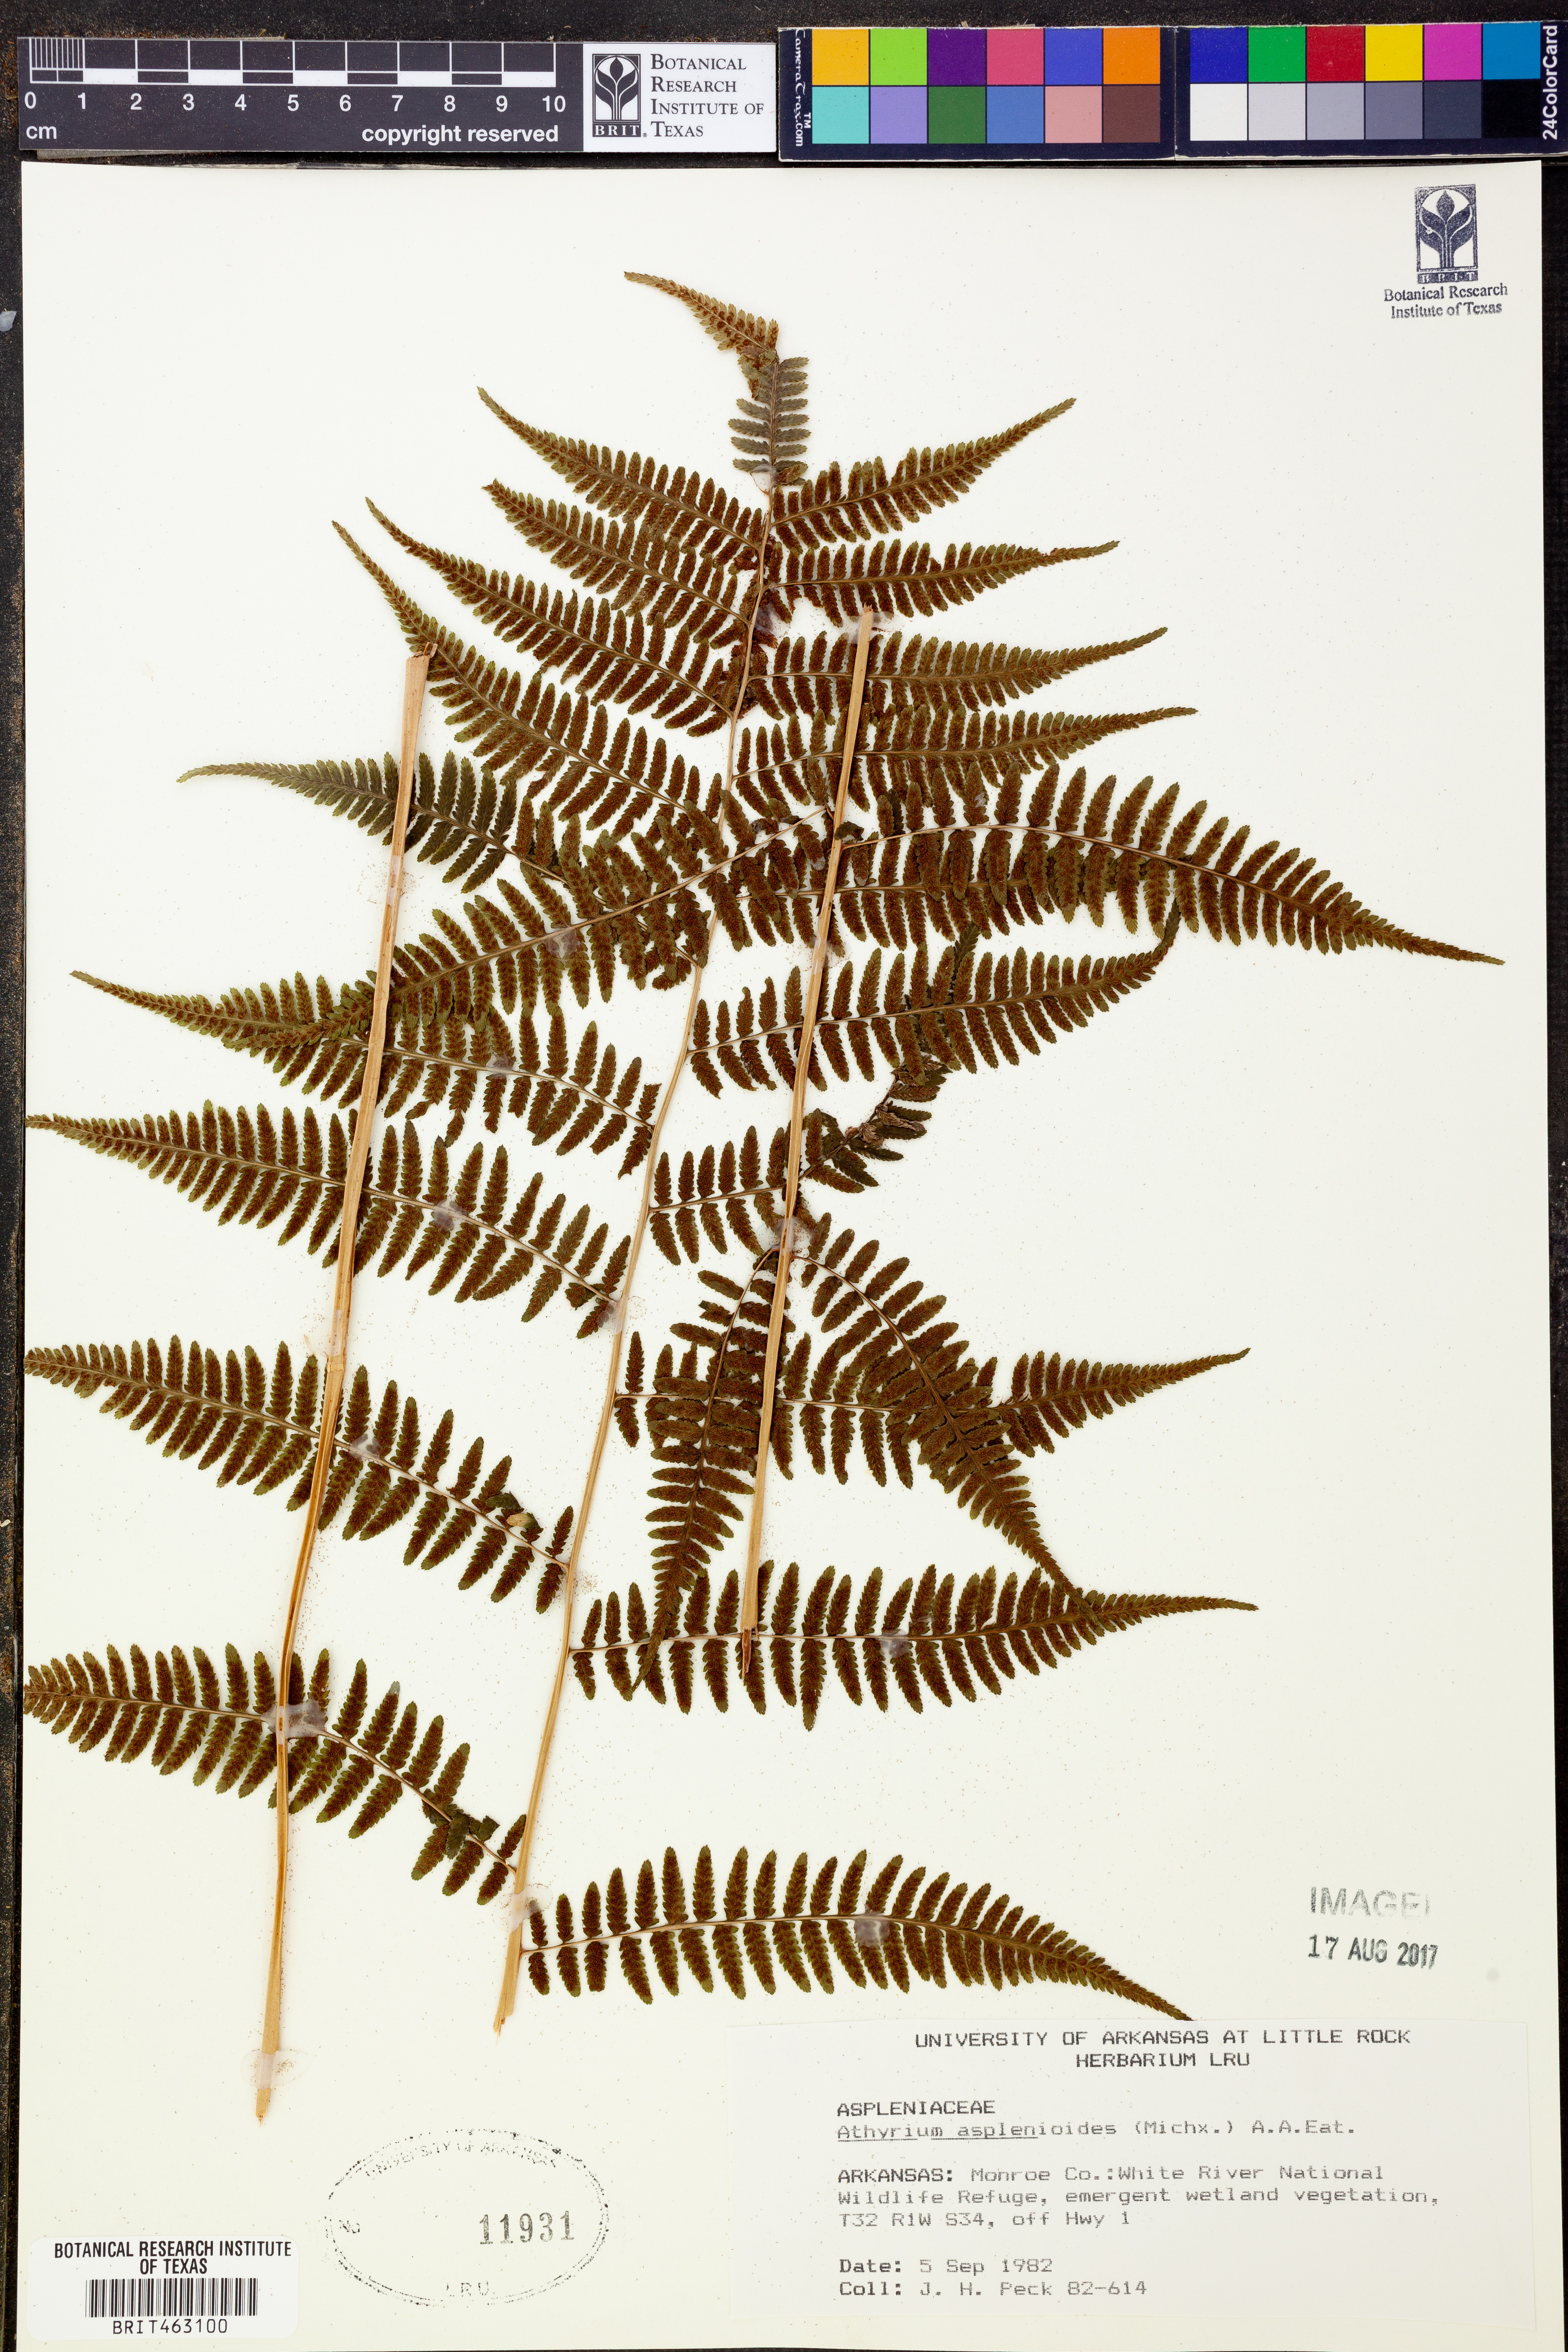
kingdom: Plantae
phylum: Tracheophyta
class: Polypodiopsida
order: Polypodiales
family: Athyriaceae
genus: Athyrium
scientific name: Athyrium asplenioides
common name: Southern lady fern
